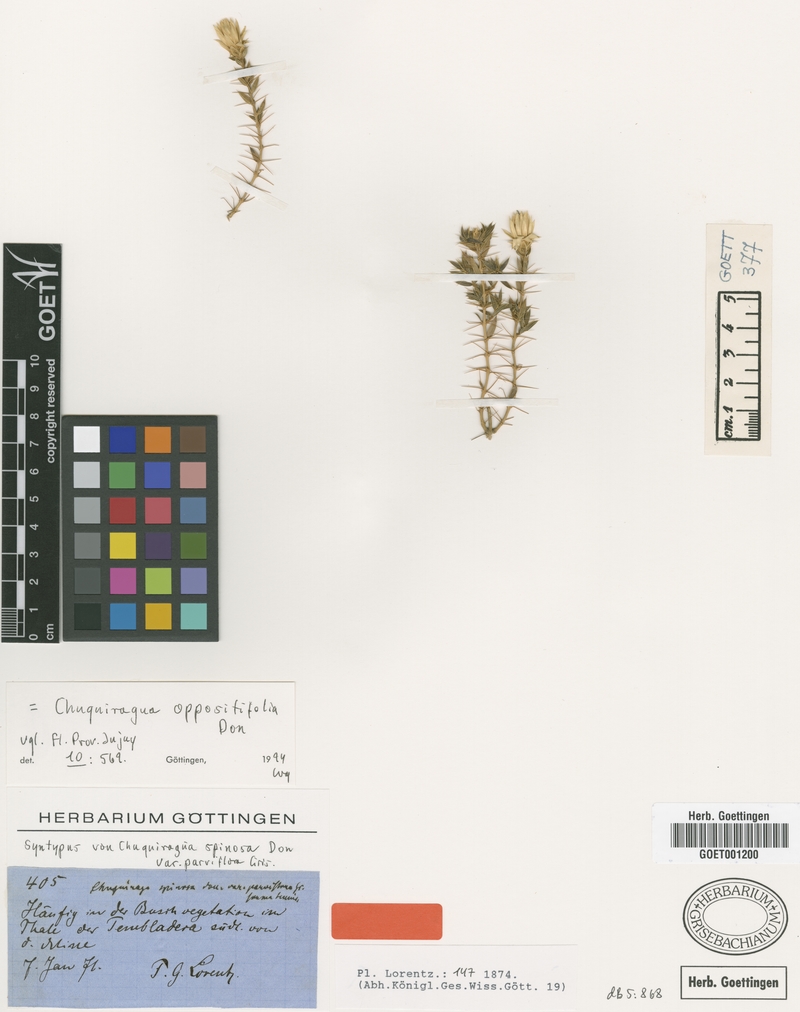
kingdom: Plantae
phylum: Tracheophyta
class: Magnoliopsida
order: Asterales
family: Asteraceae
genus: Chuquiraga
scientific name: Chuquiraga oppositifolia
